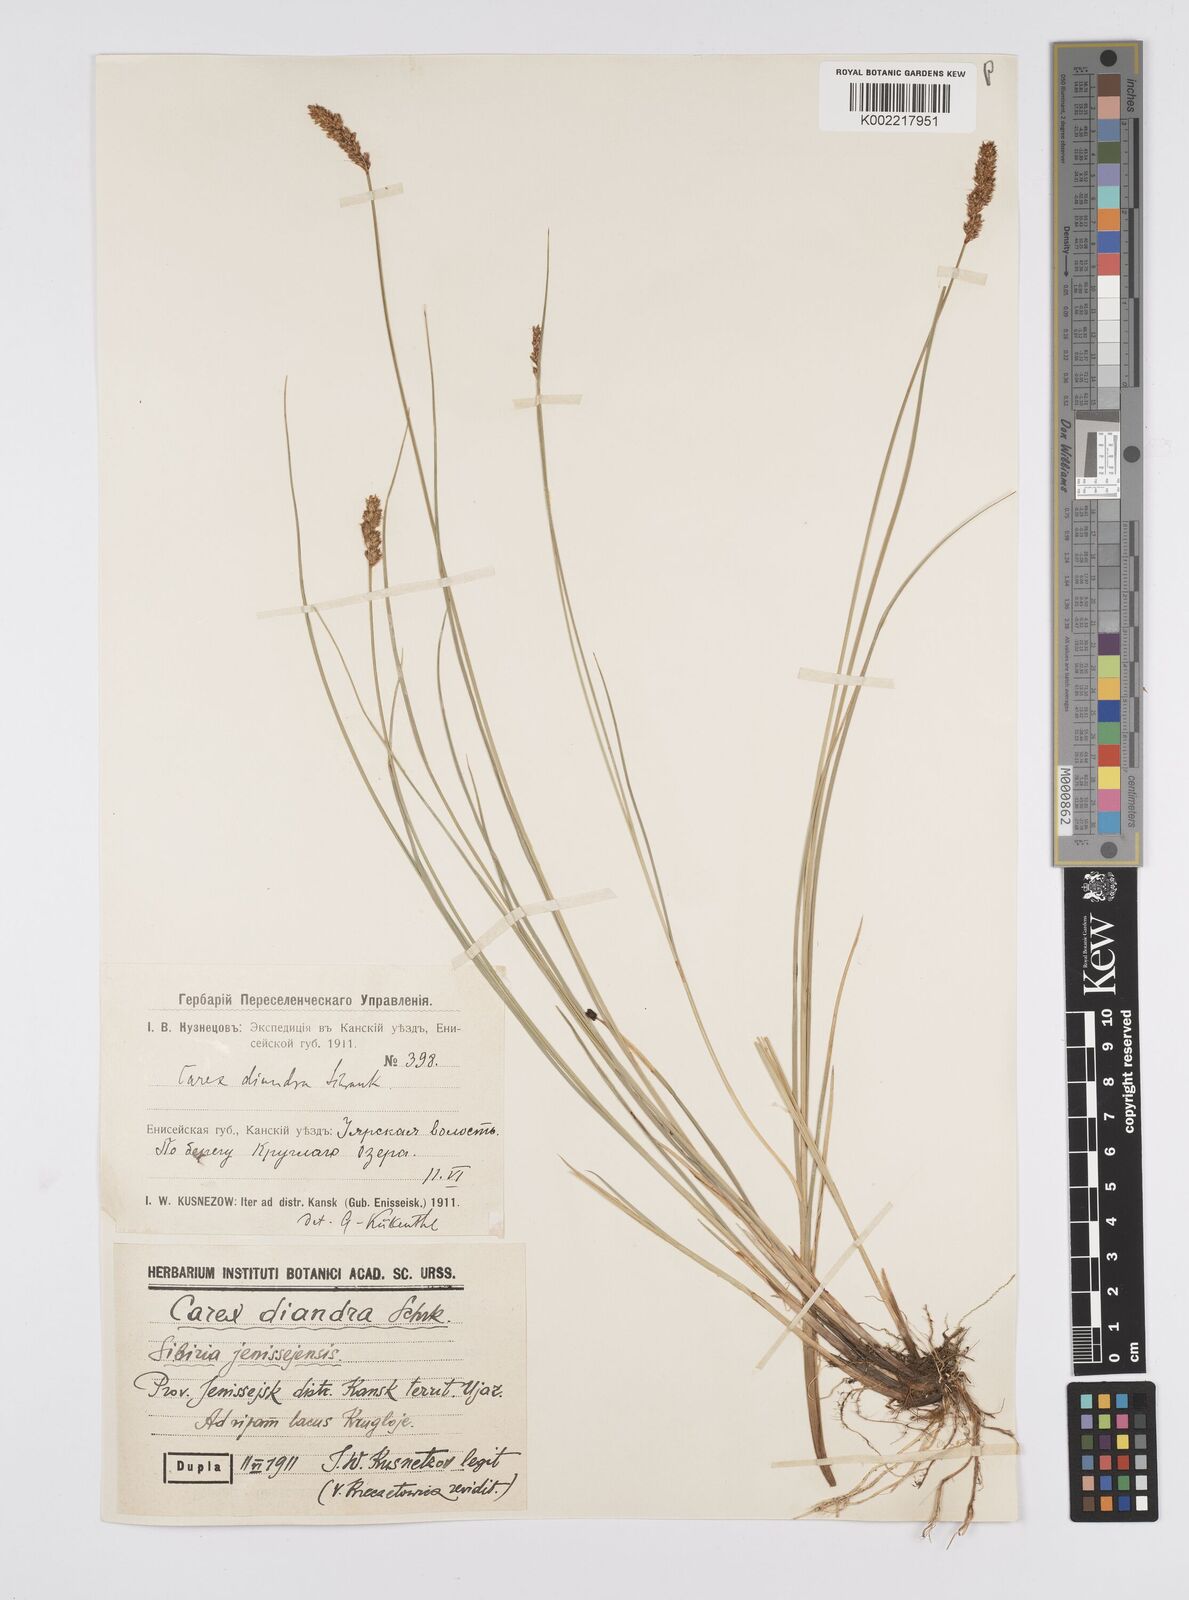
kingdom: Plantae
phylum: Tracheophyta
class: Liliopsida
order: Poales
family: Cyperaceae
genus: Carex
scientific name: Carex diandra
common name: Lesser tussock-sedge
